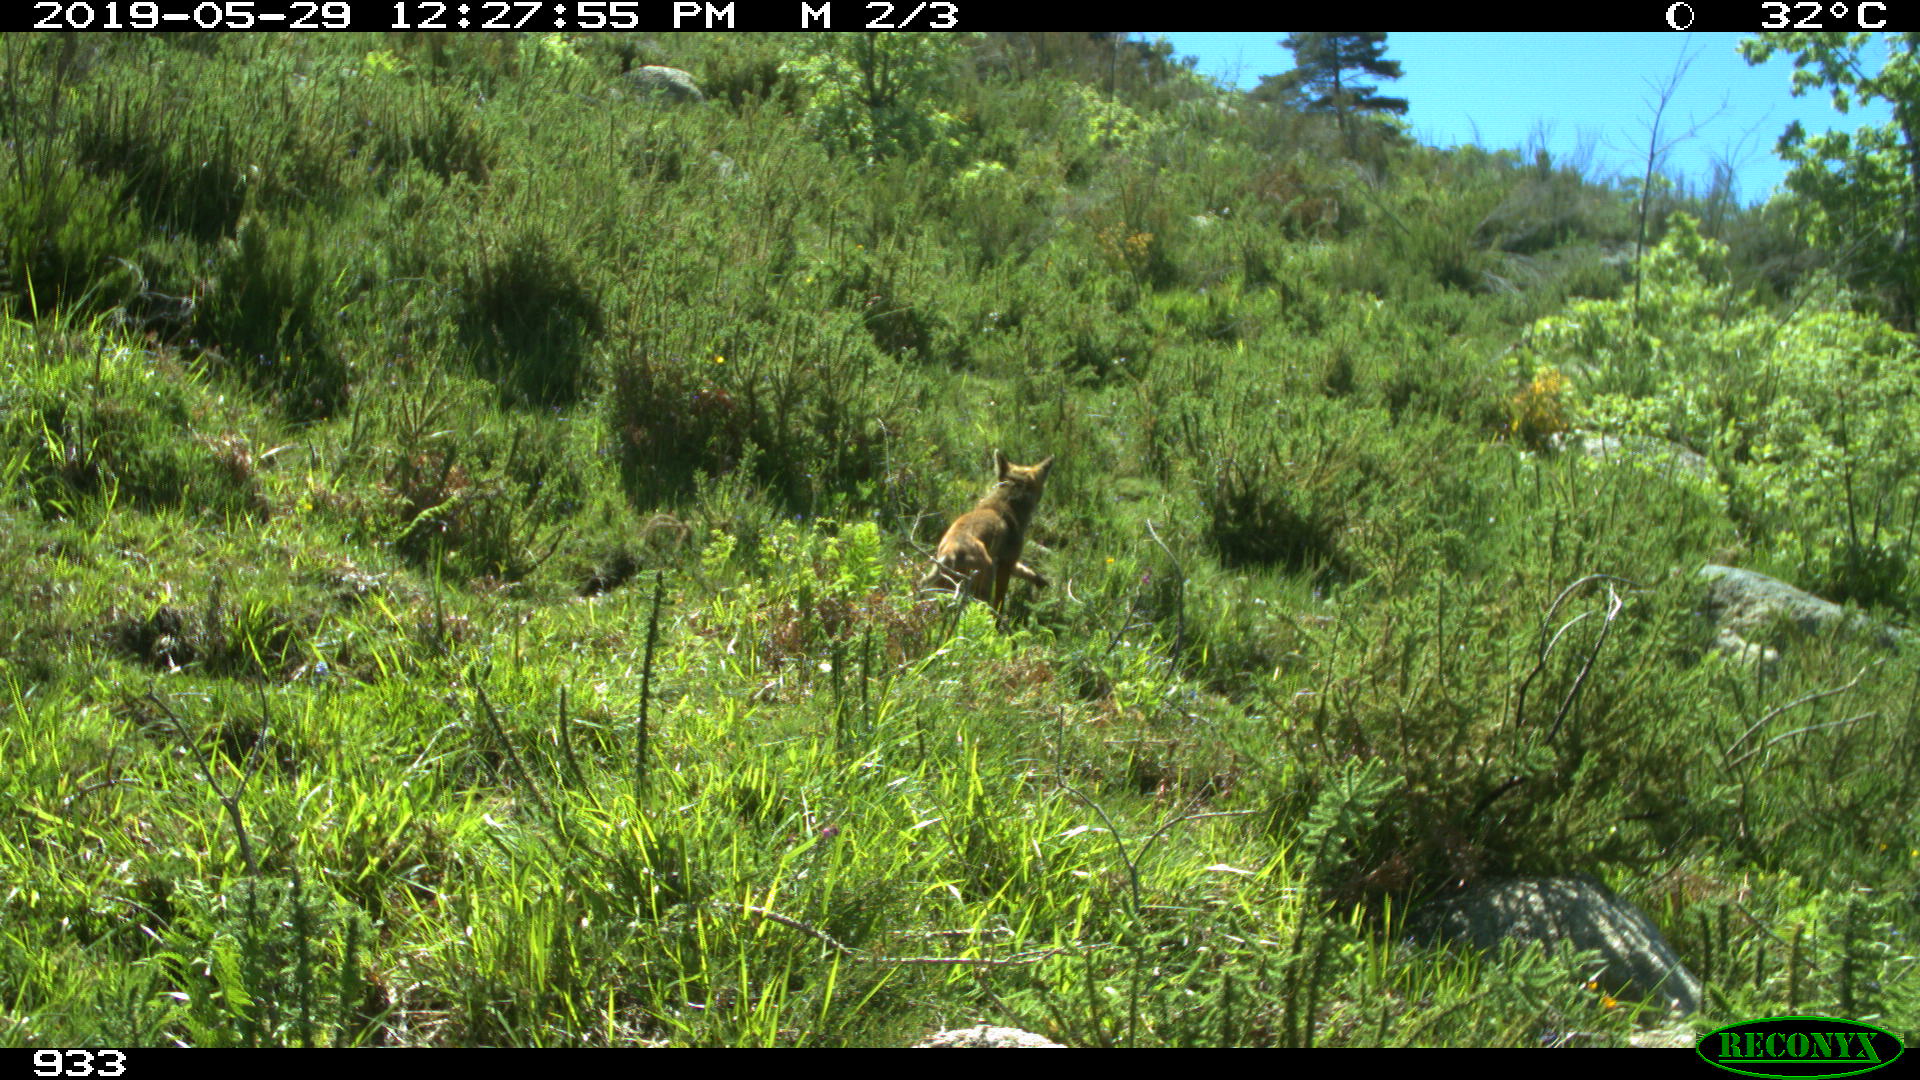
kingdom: Animalia
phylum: Chordata
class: Mammalia
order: Carnivora
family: Canidae
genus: Vulpes
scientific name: Vulpes vulpes
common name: Red fox
